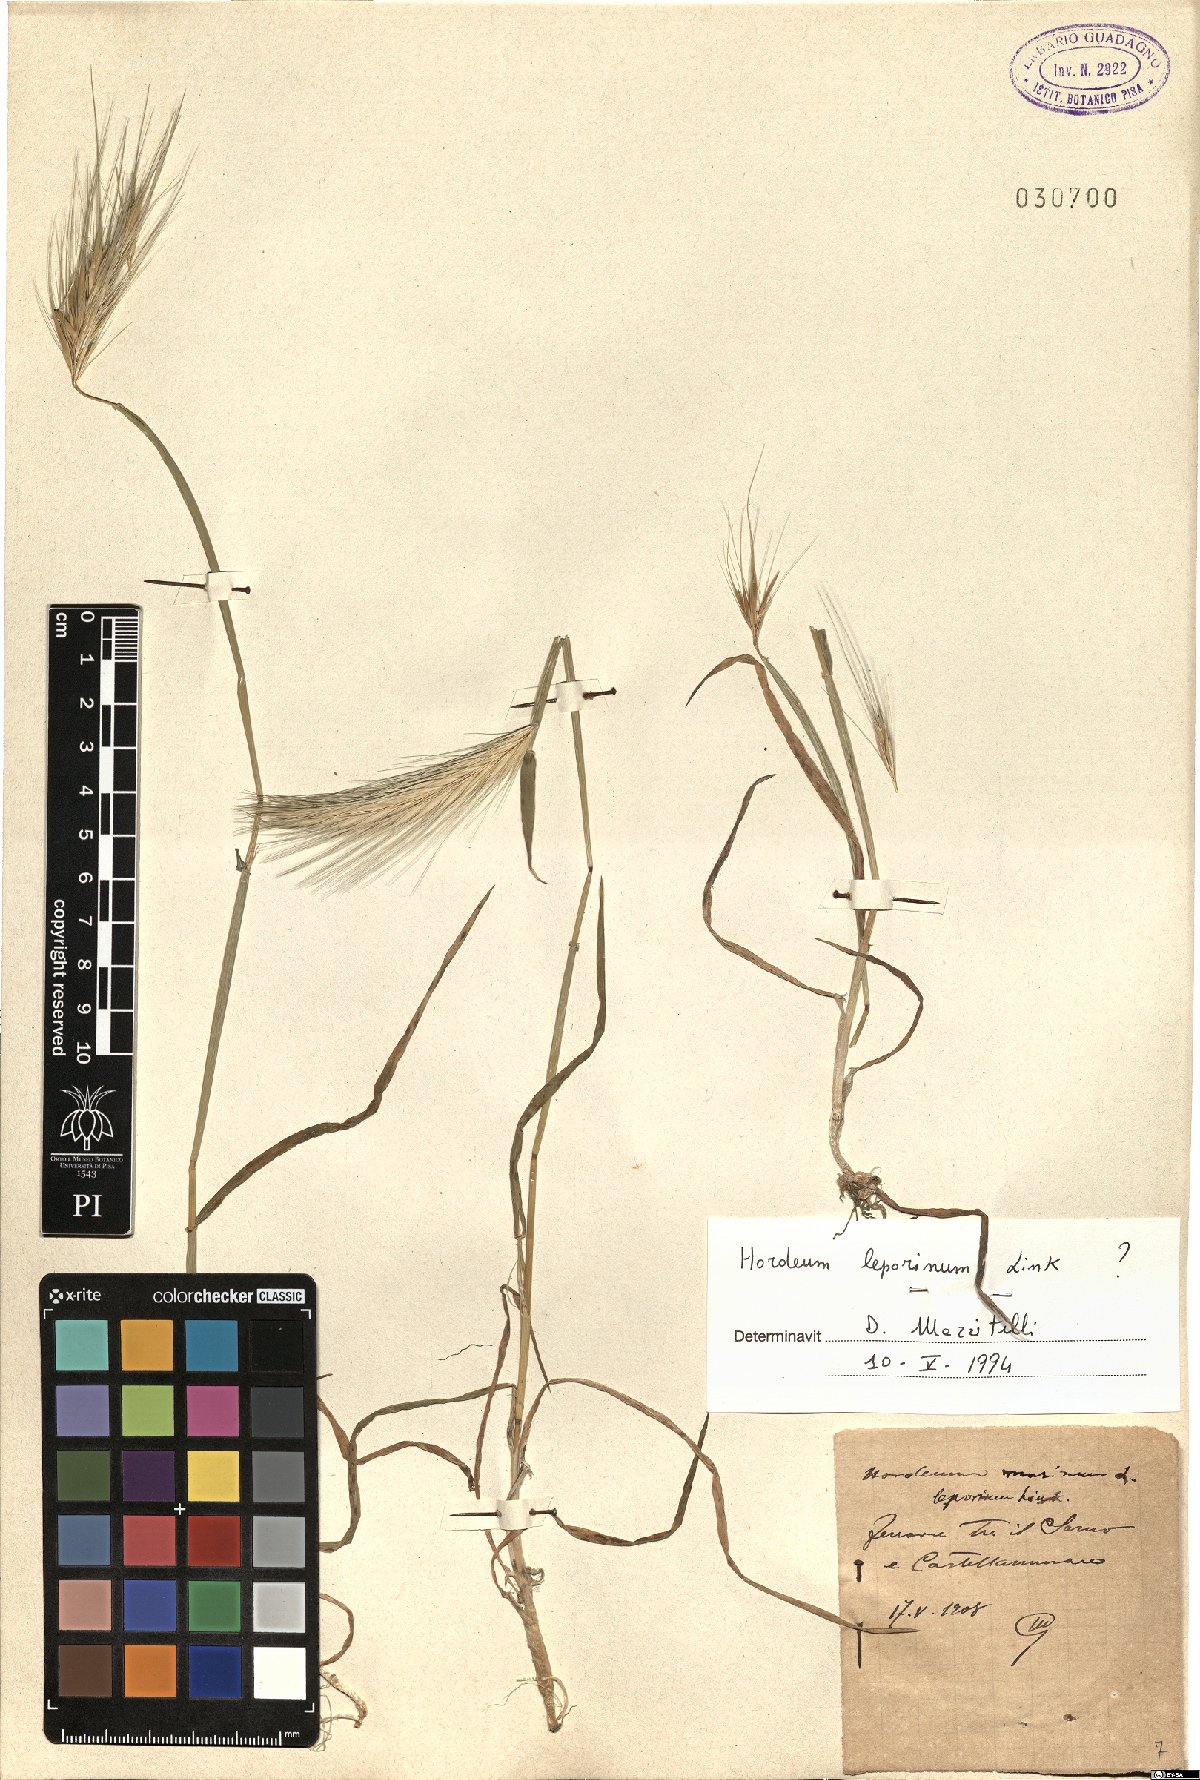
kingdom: Plantae
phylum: Tracheophyta
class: Liliopsida
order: Poales
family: Poaceae
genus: Hordeum
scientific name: Hordeum murinum
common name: Wall barley
